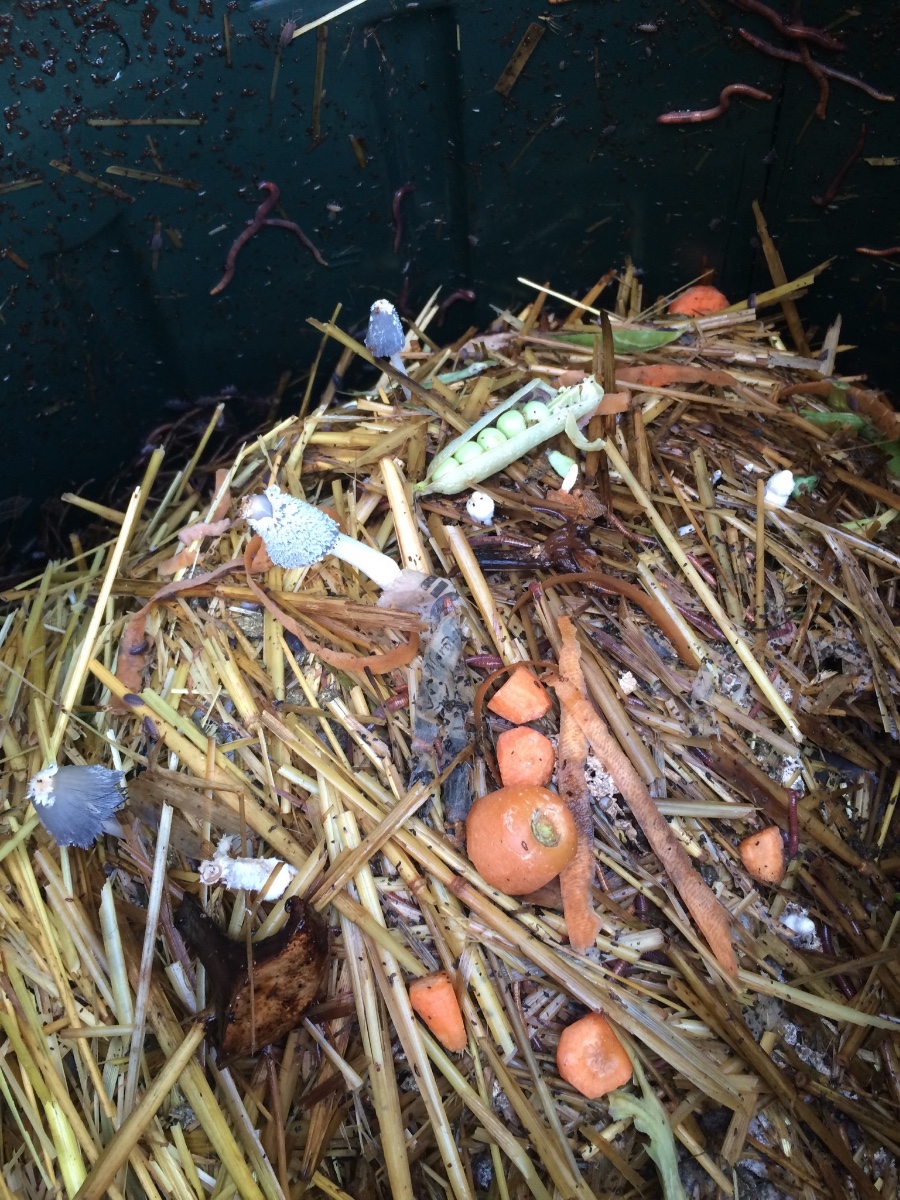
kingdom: Fungi
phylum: Basidiomycota
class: Agaricomycetes
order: Agaricales
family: Psathyrellaceae
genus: Coprinopsis
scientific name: Coprinopsis
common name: blækhat
